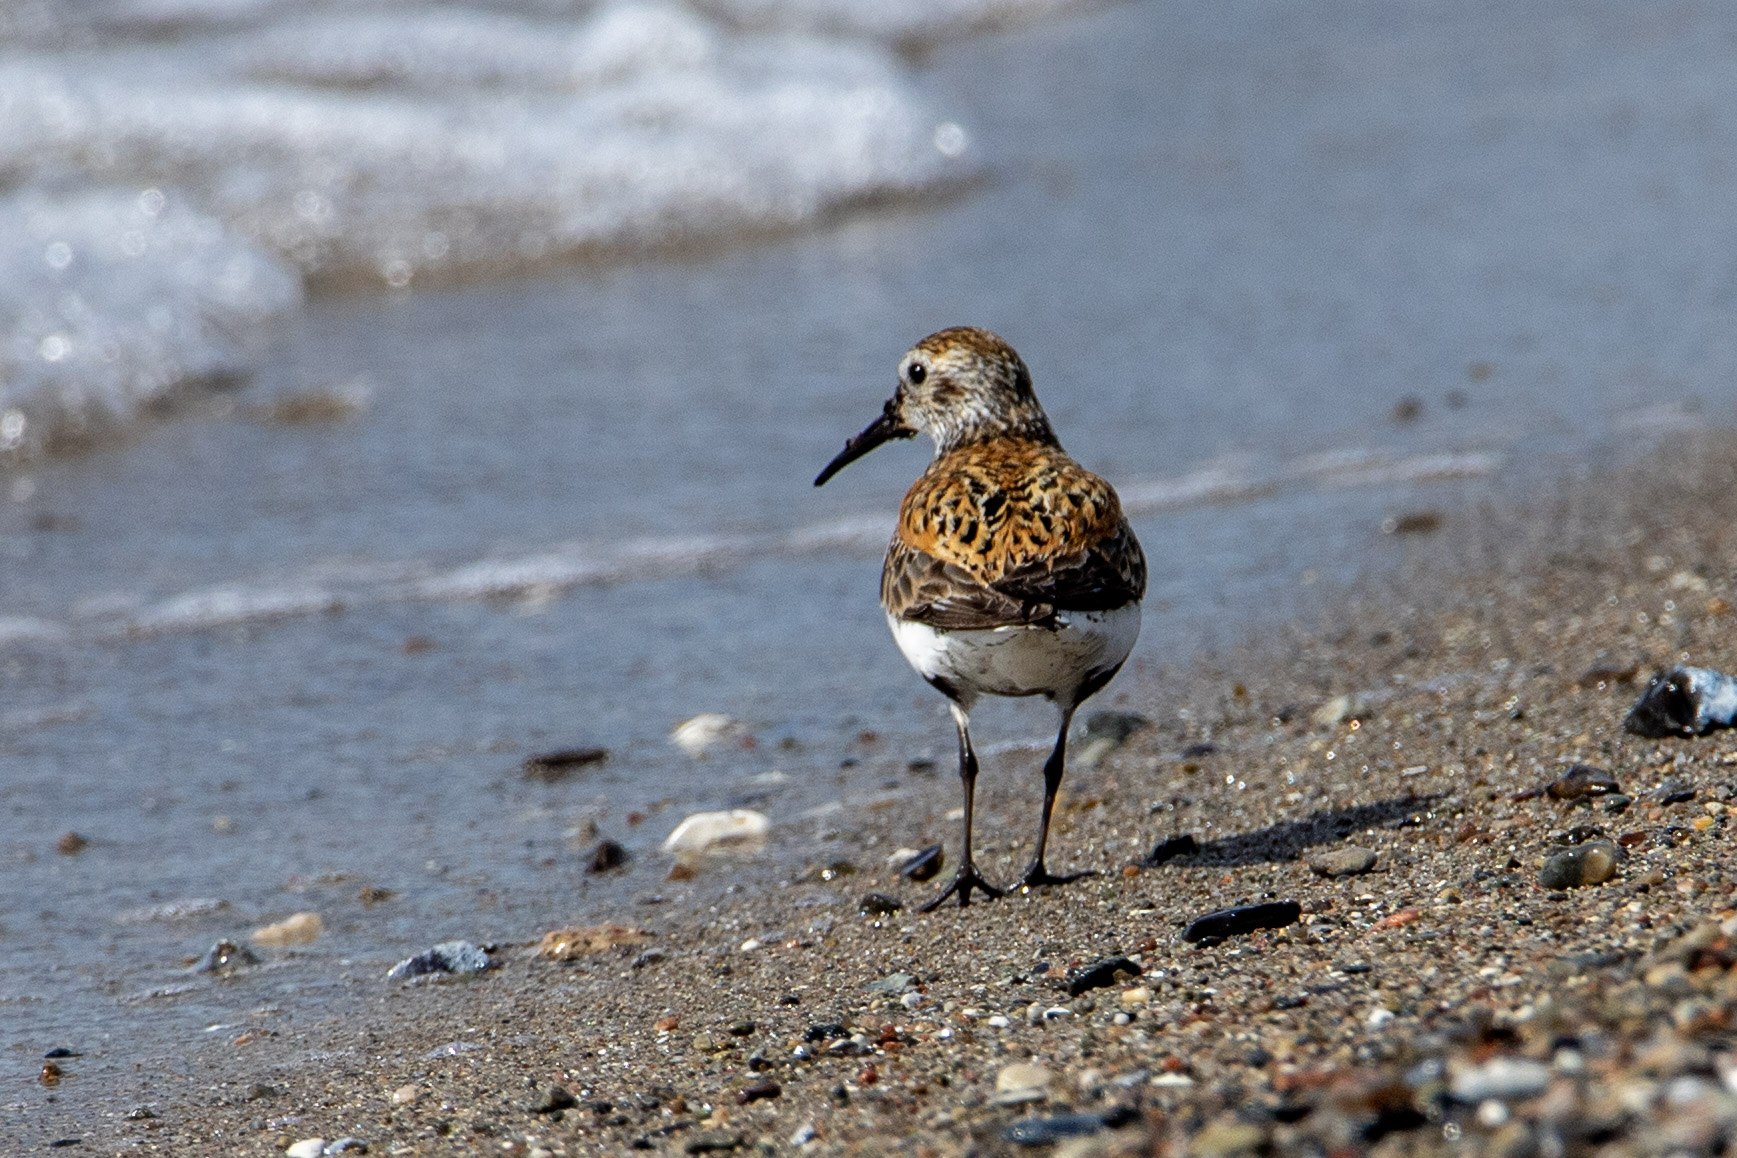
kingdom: Animalia
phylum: Chordata
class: Aves
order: Charadriiformes
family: Scolopacidae
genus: Calidris
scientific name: Calidris alpina
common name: Almindelig ryle
